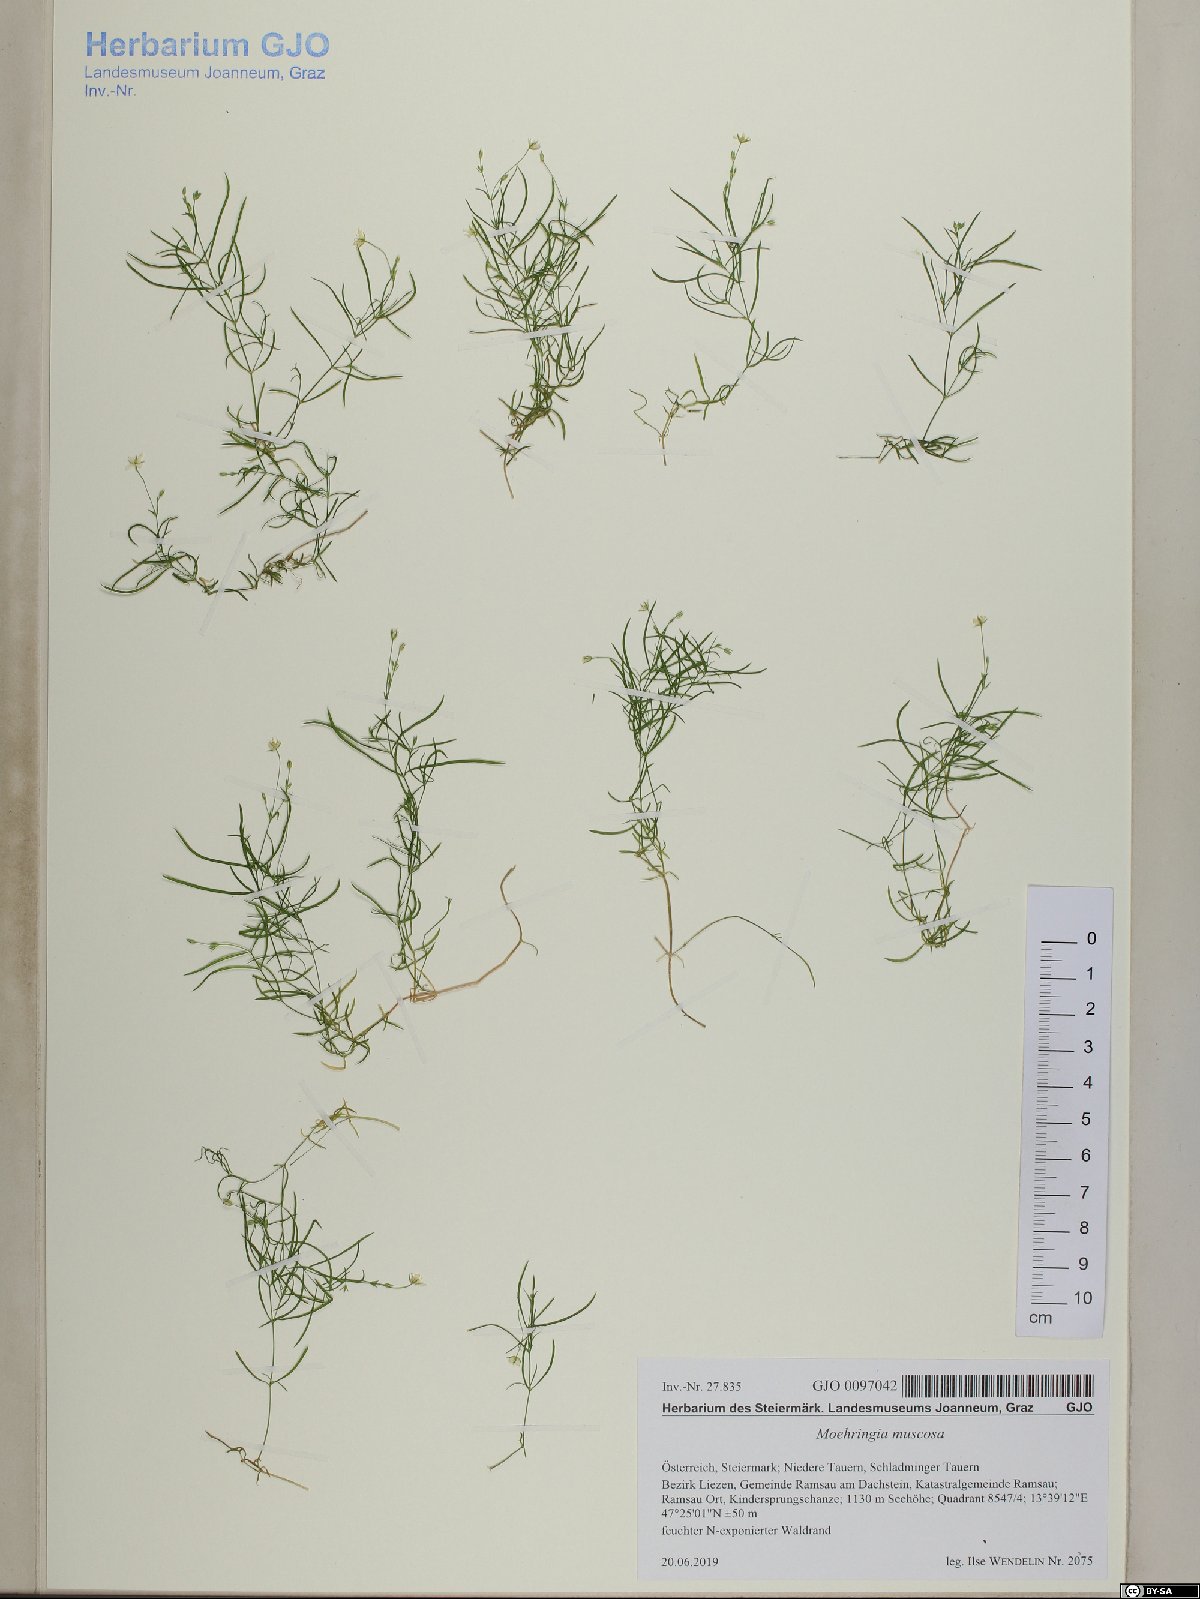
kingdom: Plantae
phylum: Tracheophyta
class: Magnoliopsida
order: Caryophyllales
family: Caryophyllaceae
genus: Moehringia
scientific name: Moehringia muscosa
